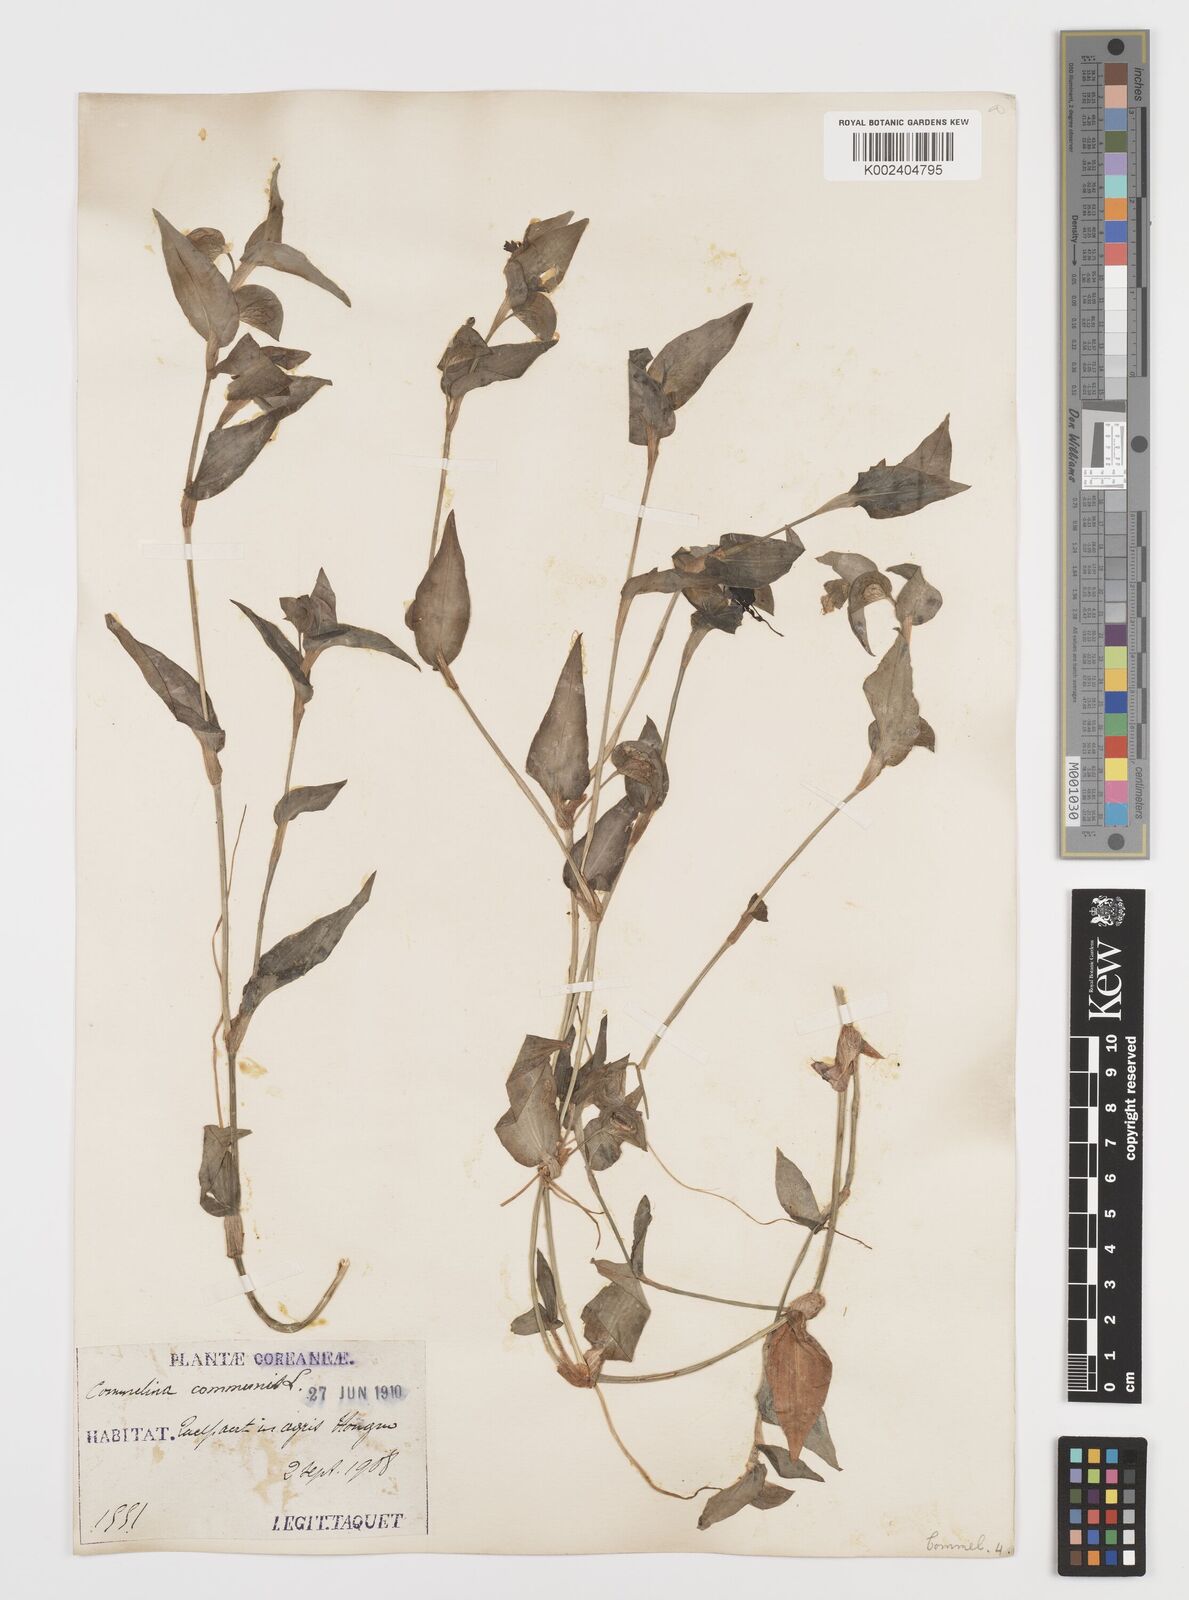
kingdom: Plantae
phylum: Tracheophyta
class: Liliopsida
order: Commelinales
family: Commelinaceae
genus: Commelina
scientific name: Commelina communis
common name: Asiatic dayflower
